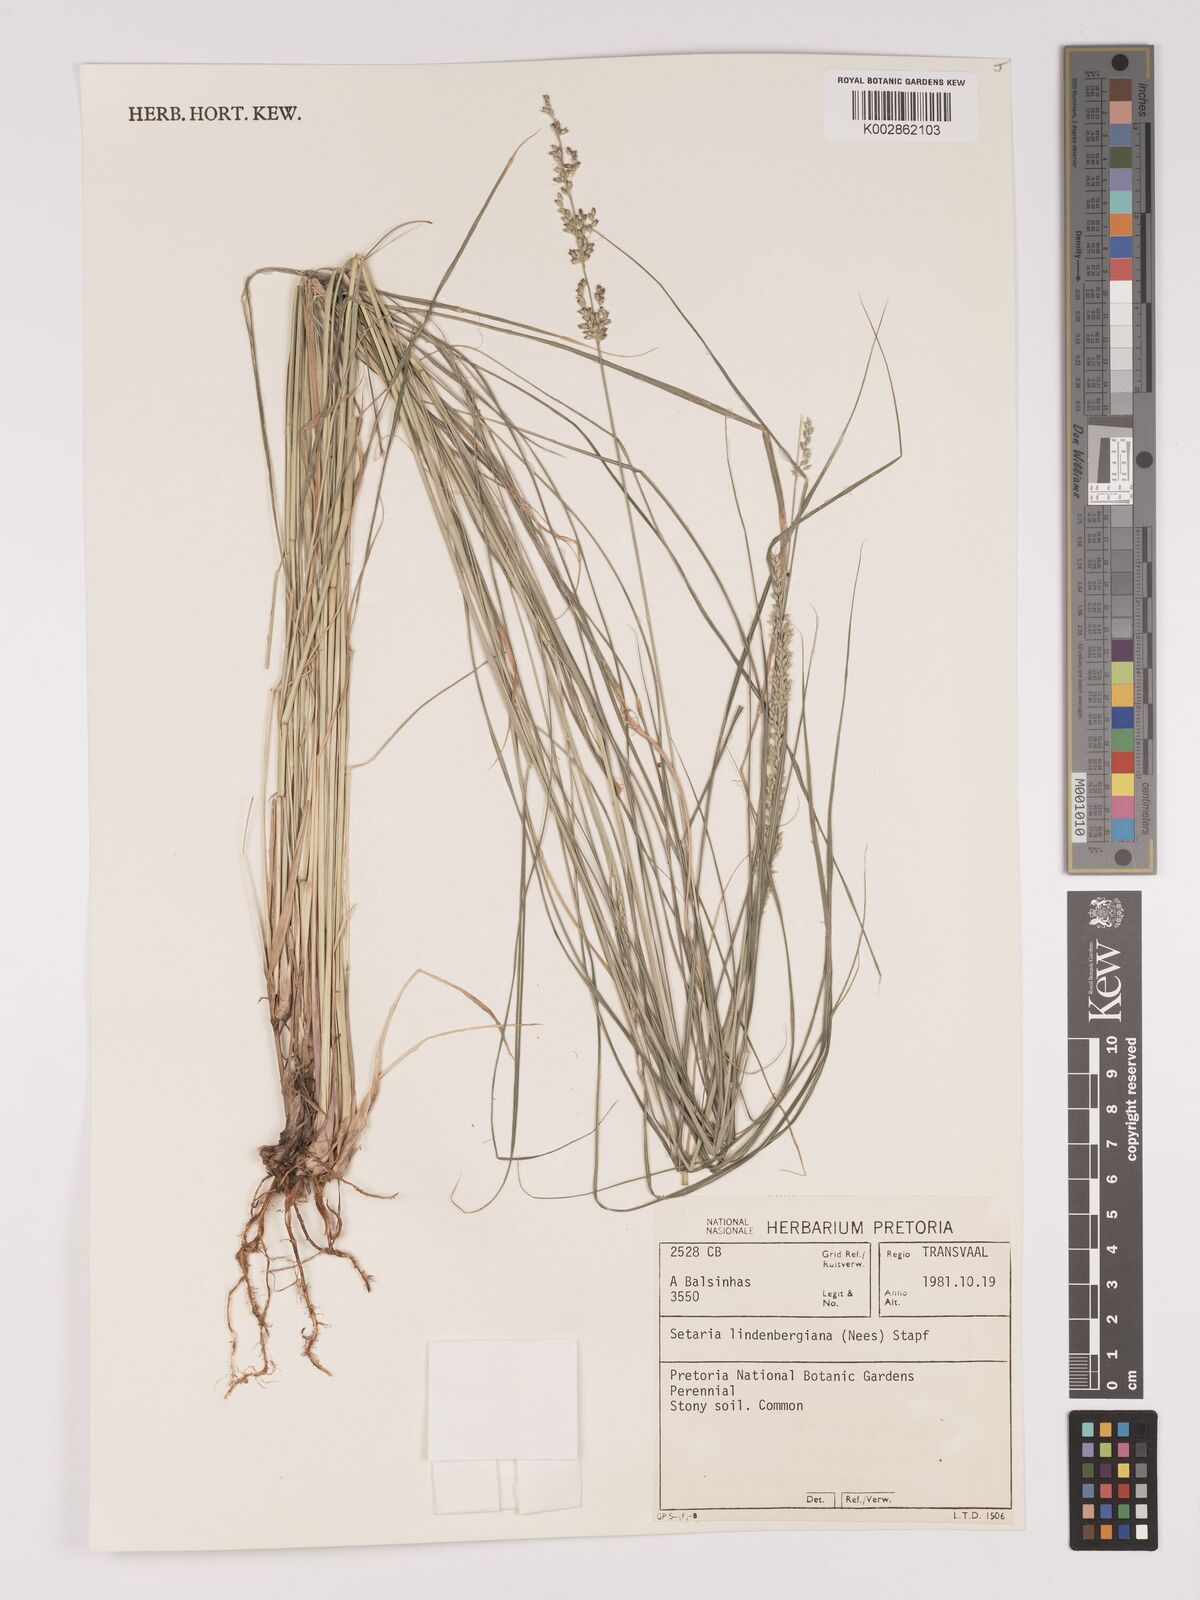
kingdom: Plantae
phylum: Tracheophyta
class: Liliopsida
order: Poales
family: Poaceae
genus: Setaria
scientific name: Setaria lindenbergiana
